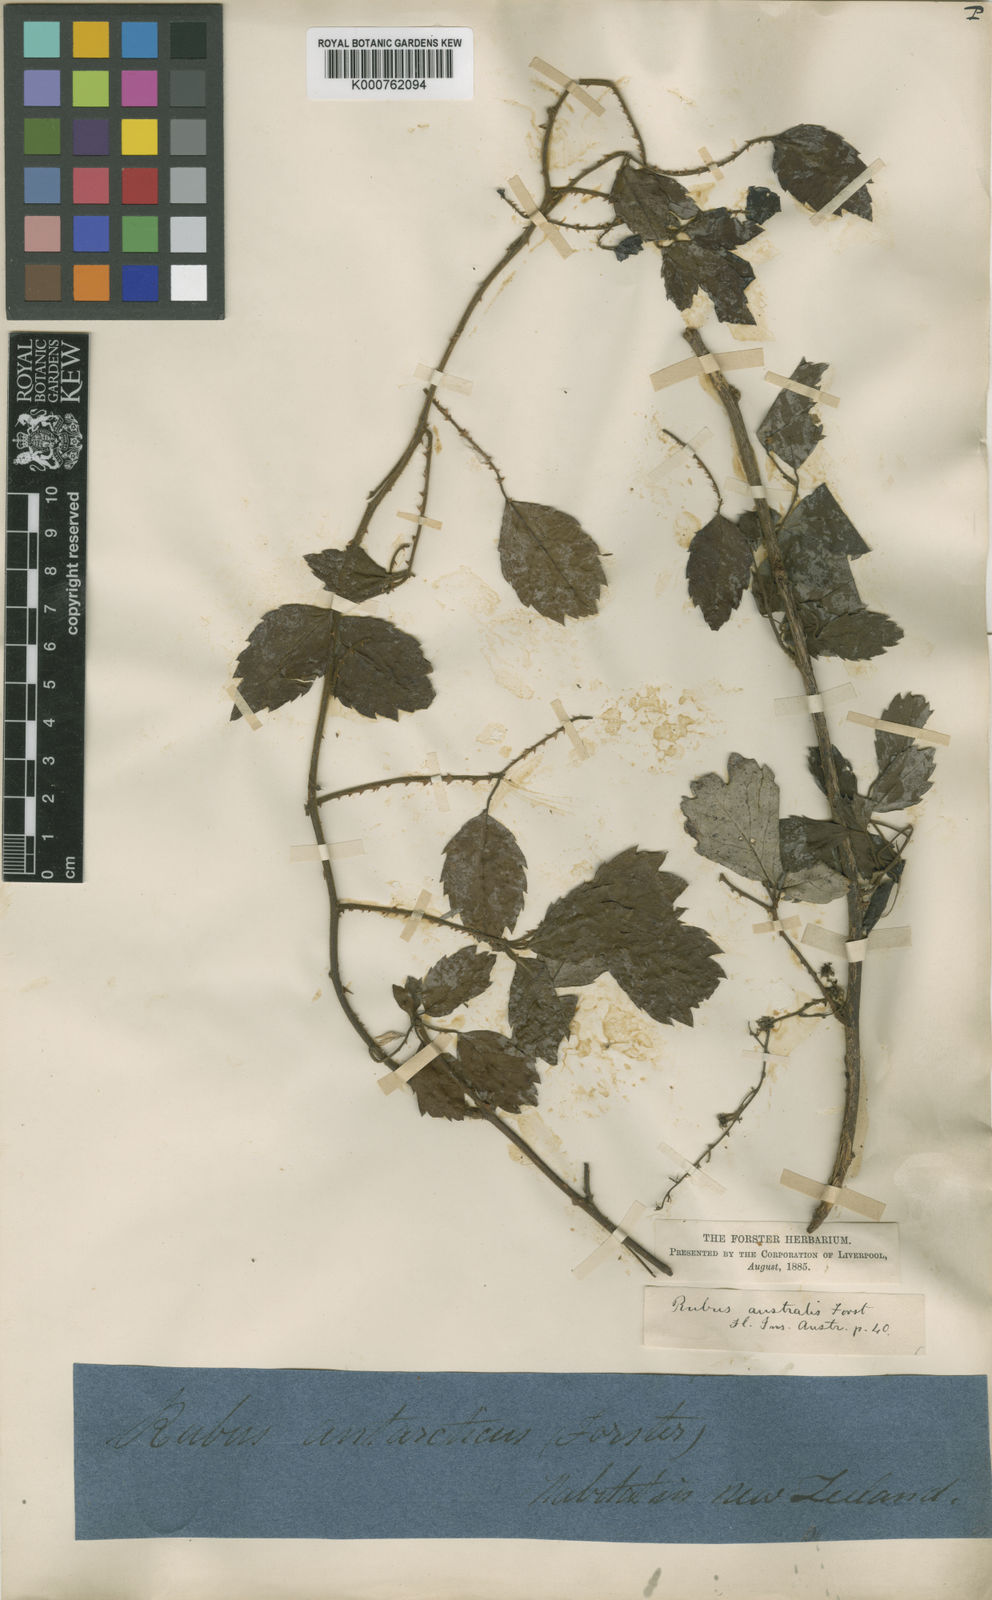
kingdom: Plantae
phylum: Tracheophyta
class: Magnoliopsida
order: Rosales
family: Rosaceae
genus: Rubus
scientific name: Rubus australis
